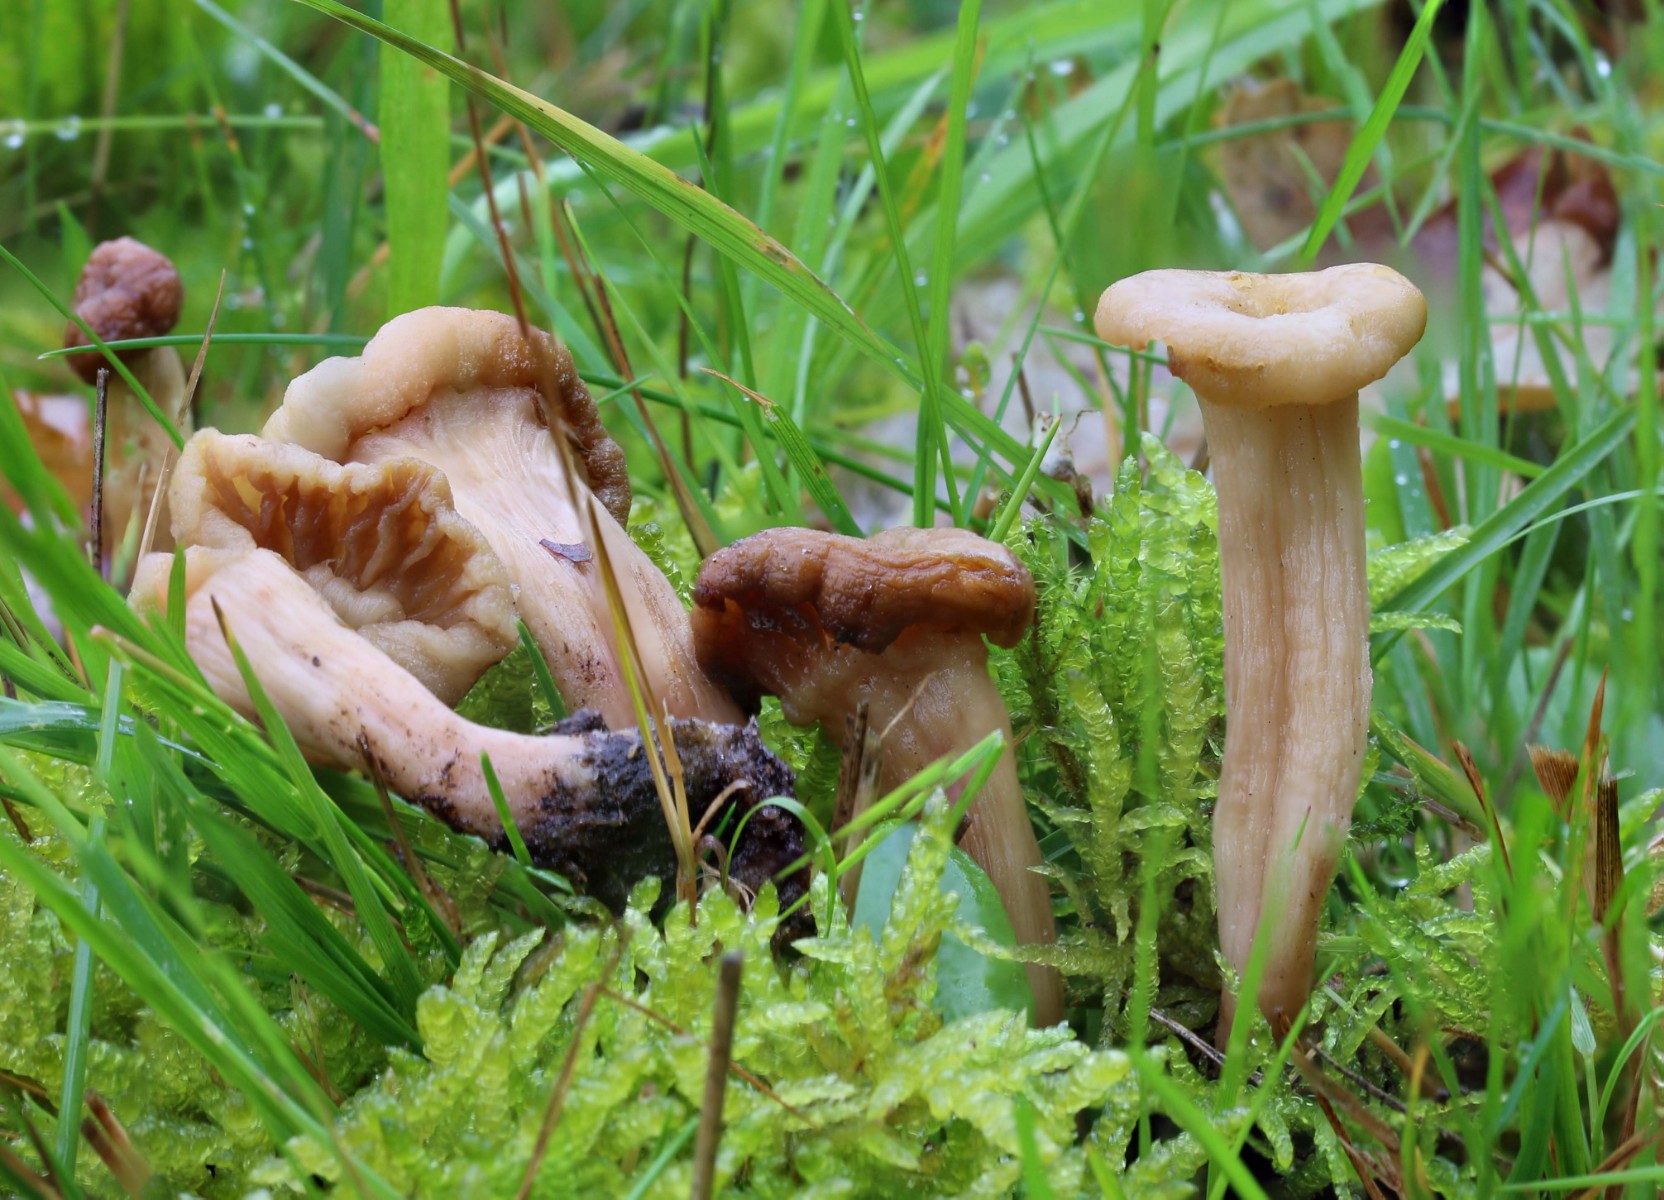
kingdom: Fungi
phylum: Basidiomycota
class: Agaricomycetes
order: Agaricales
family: Hydnangiaceae
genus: Laccaria
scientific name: Laccaria
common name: ametysthat
